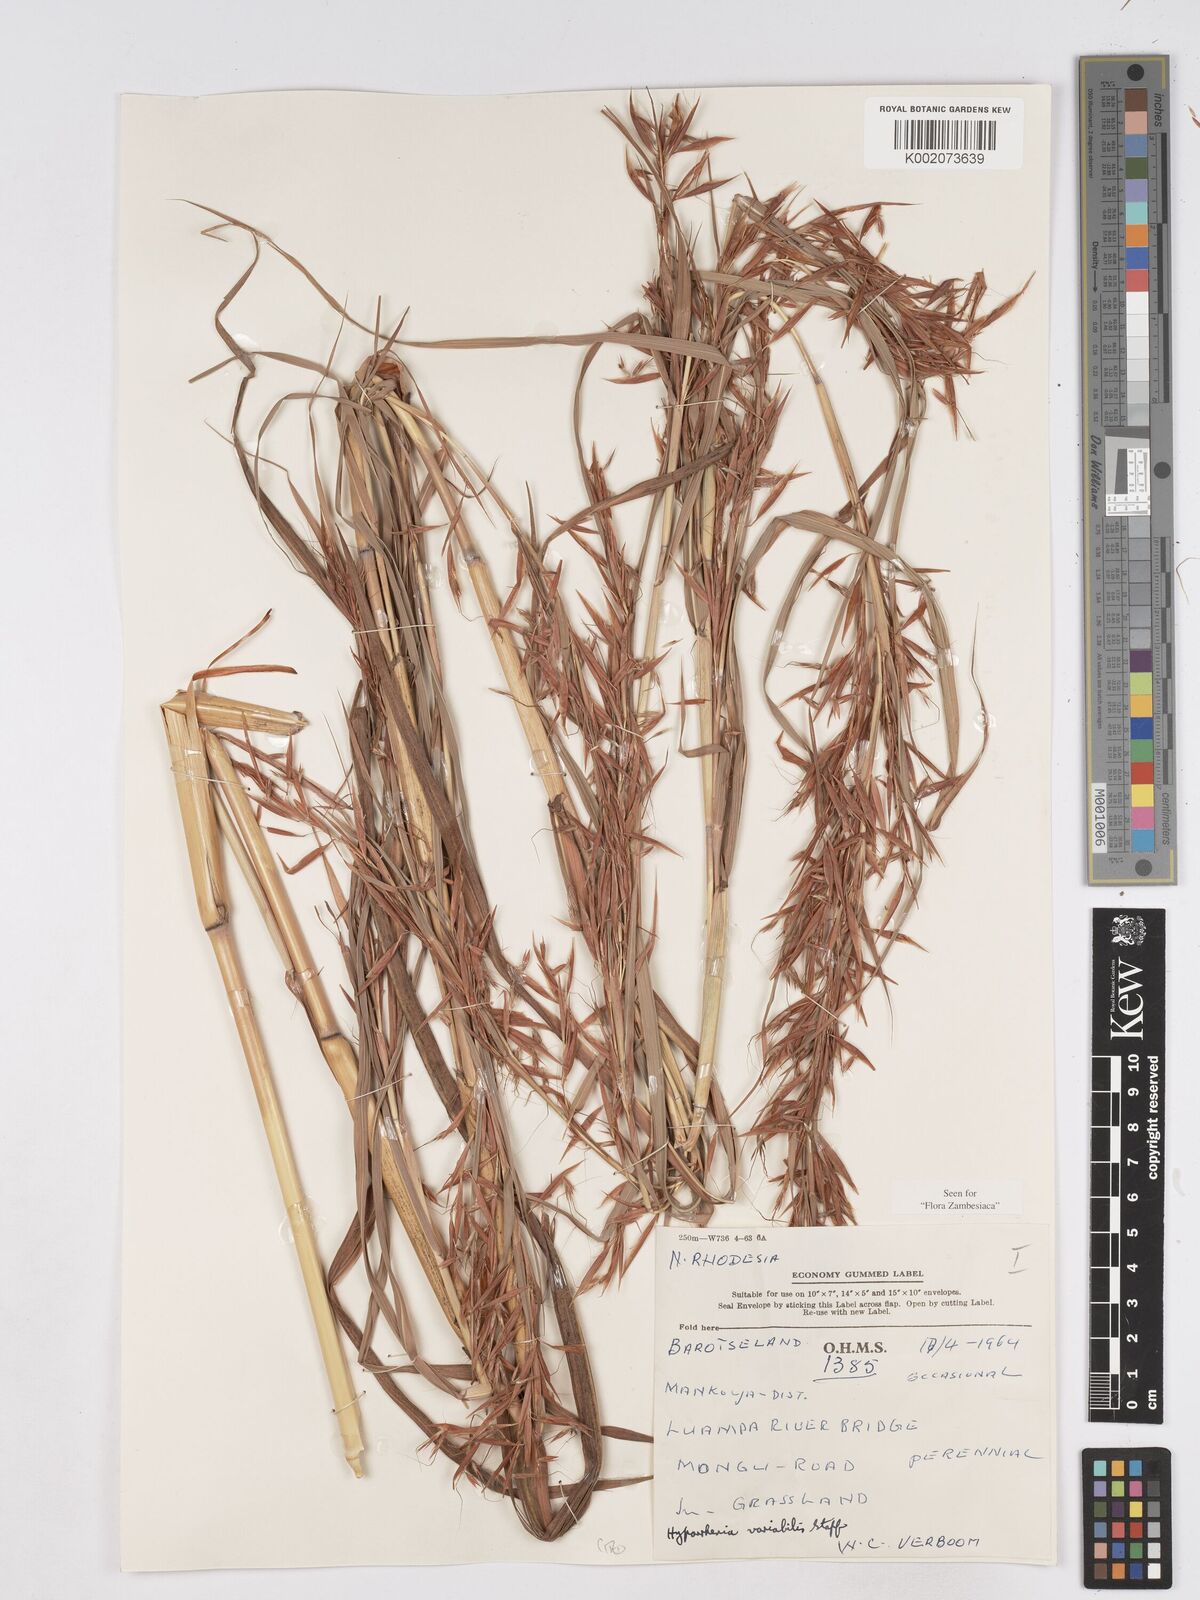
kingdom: Plantae
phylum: Tracheophyta
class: Liliopsida
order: Poales
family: Poaceae
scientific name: Poaceae
